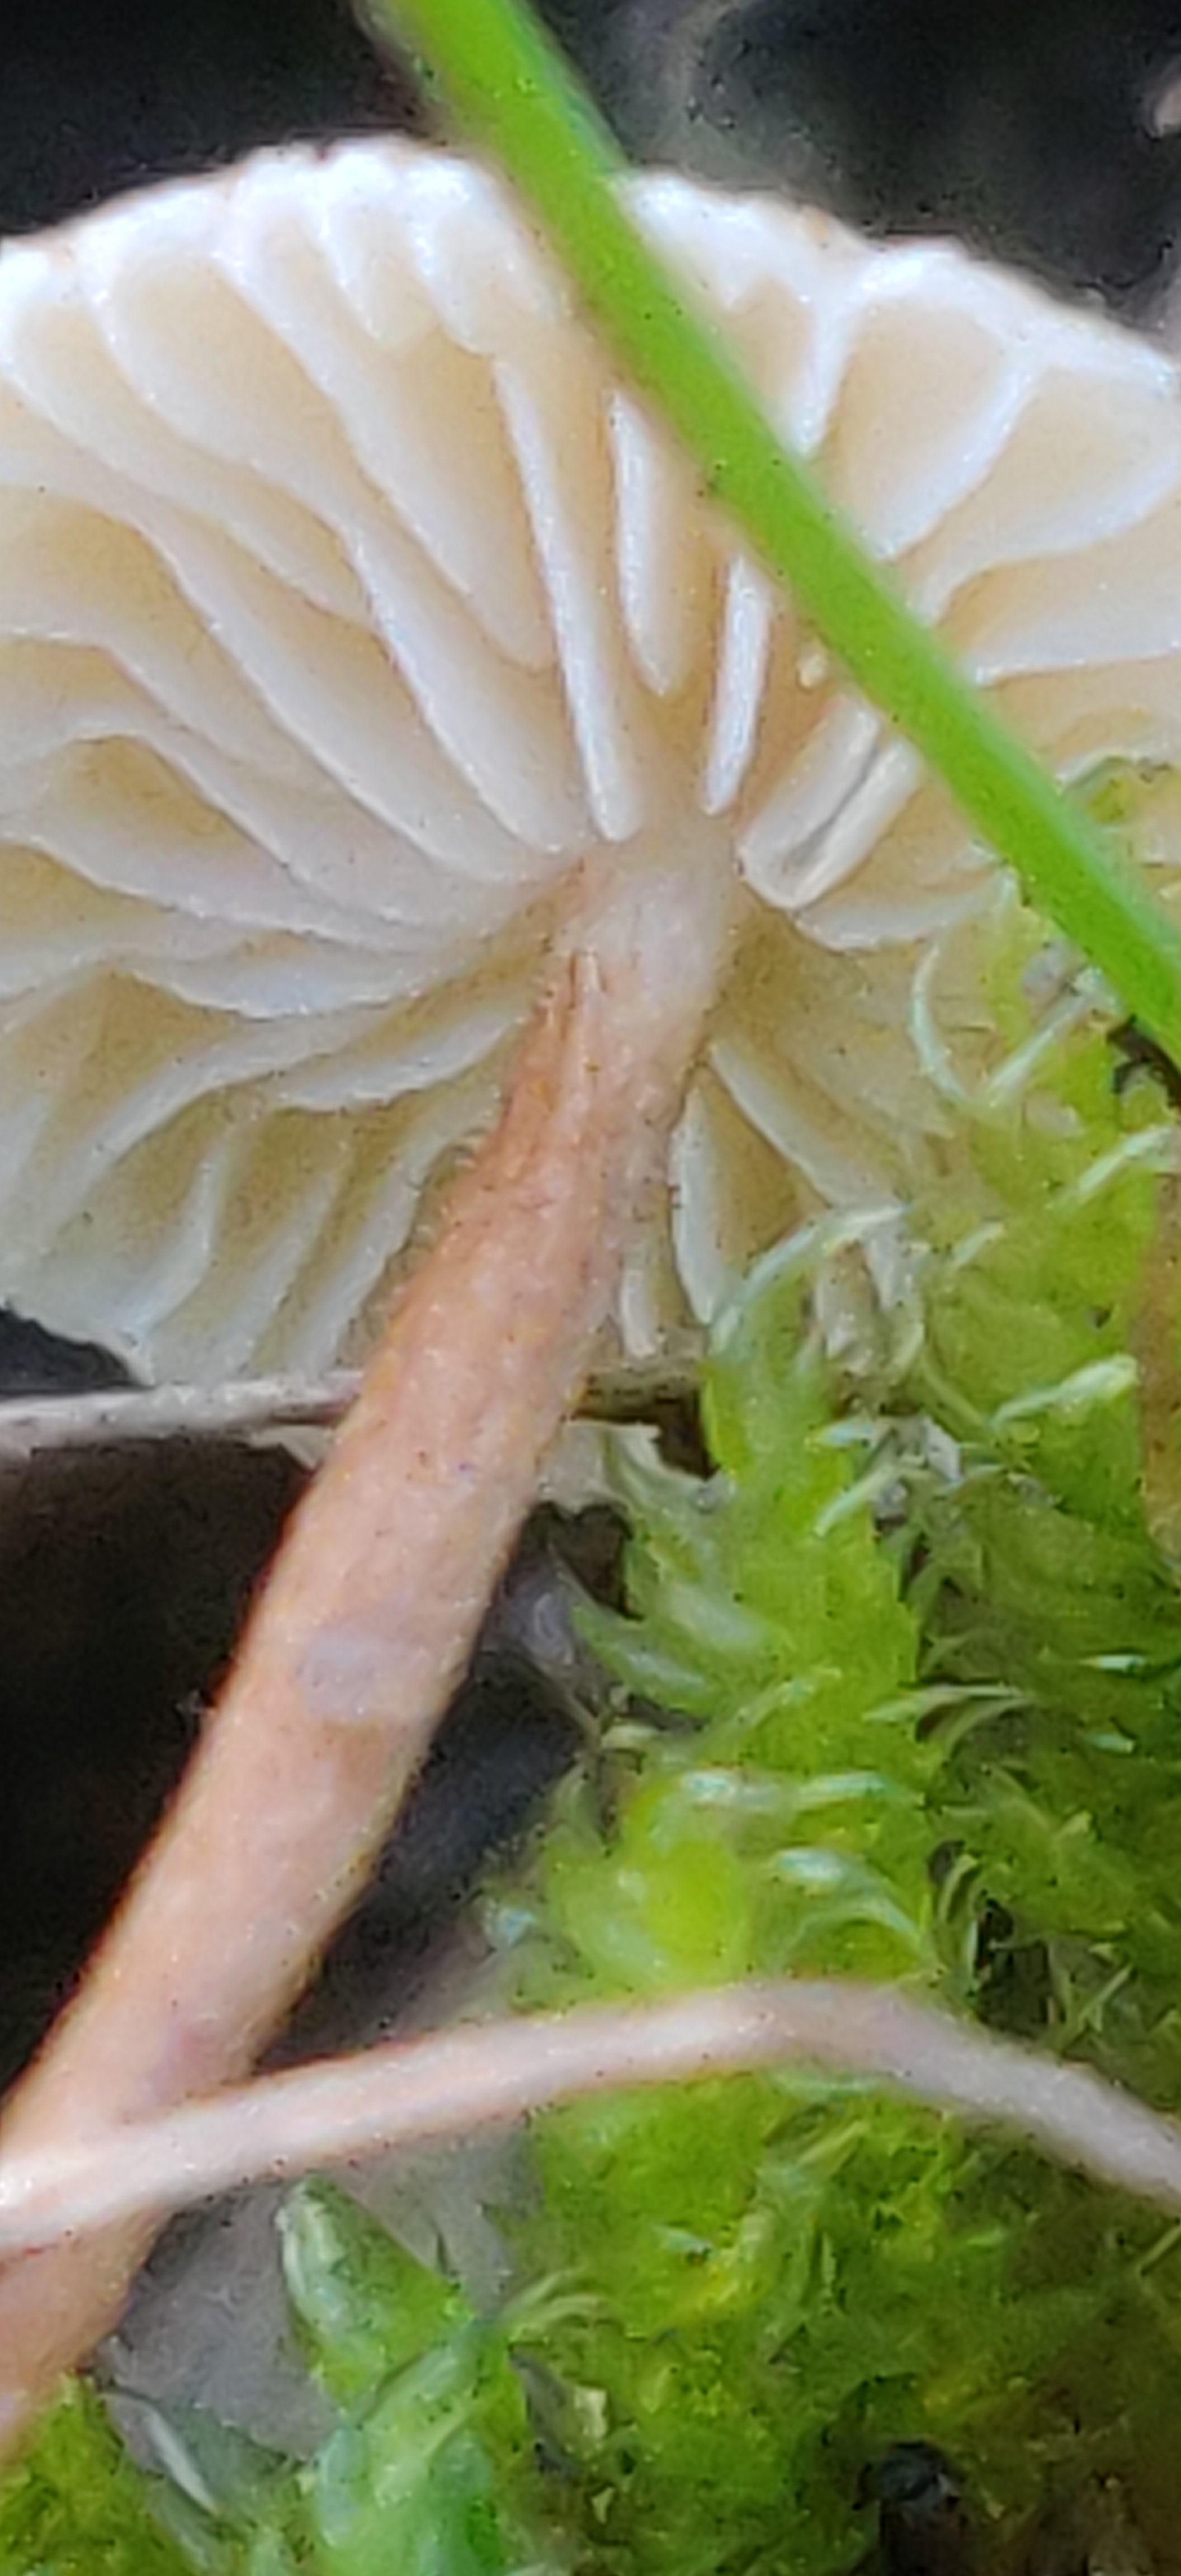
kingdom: Fungi
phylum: Basidiomycota
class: Agaricomycetes
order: Agaricales
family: Marasmiaceae
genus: Crinipellis
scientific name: Crinipellis scabella
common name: børstefod
